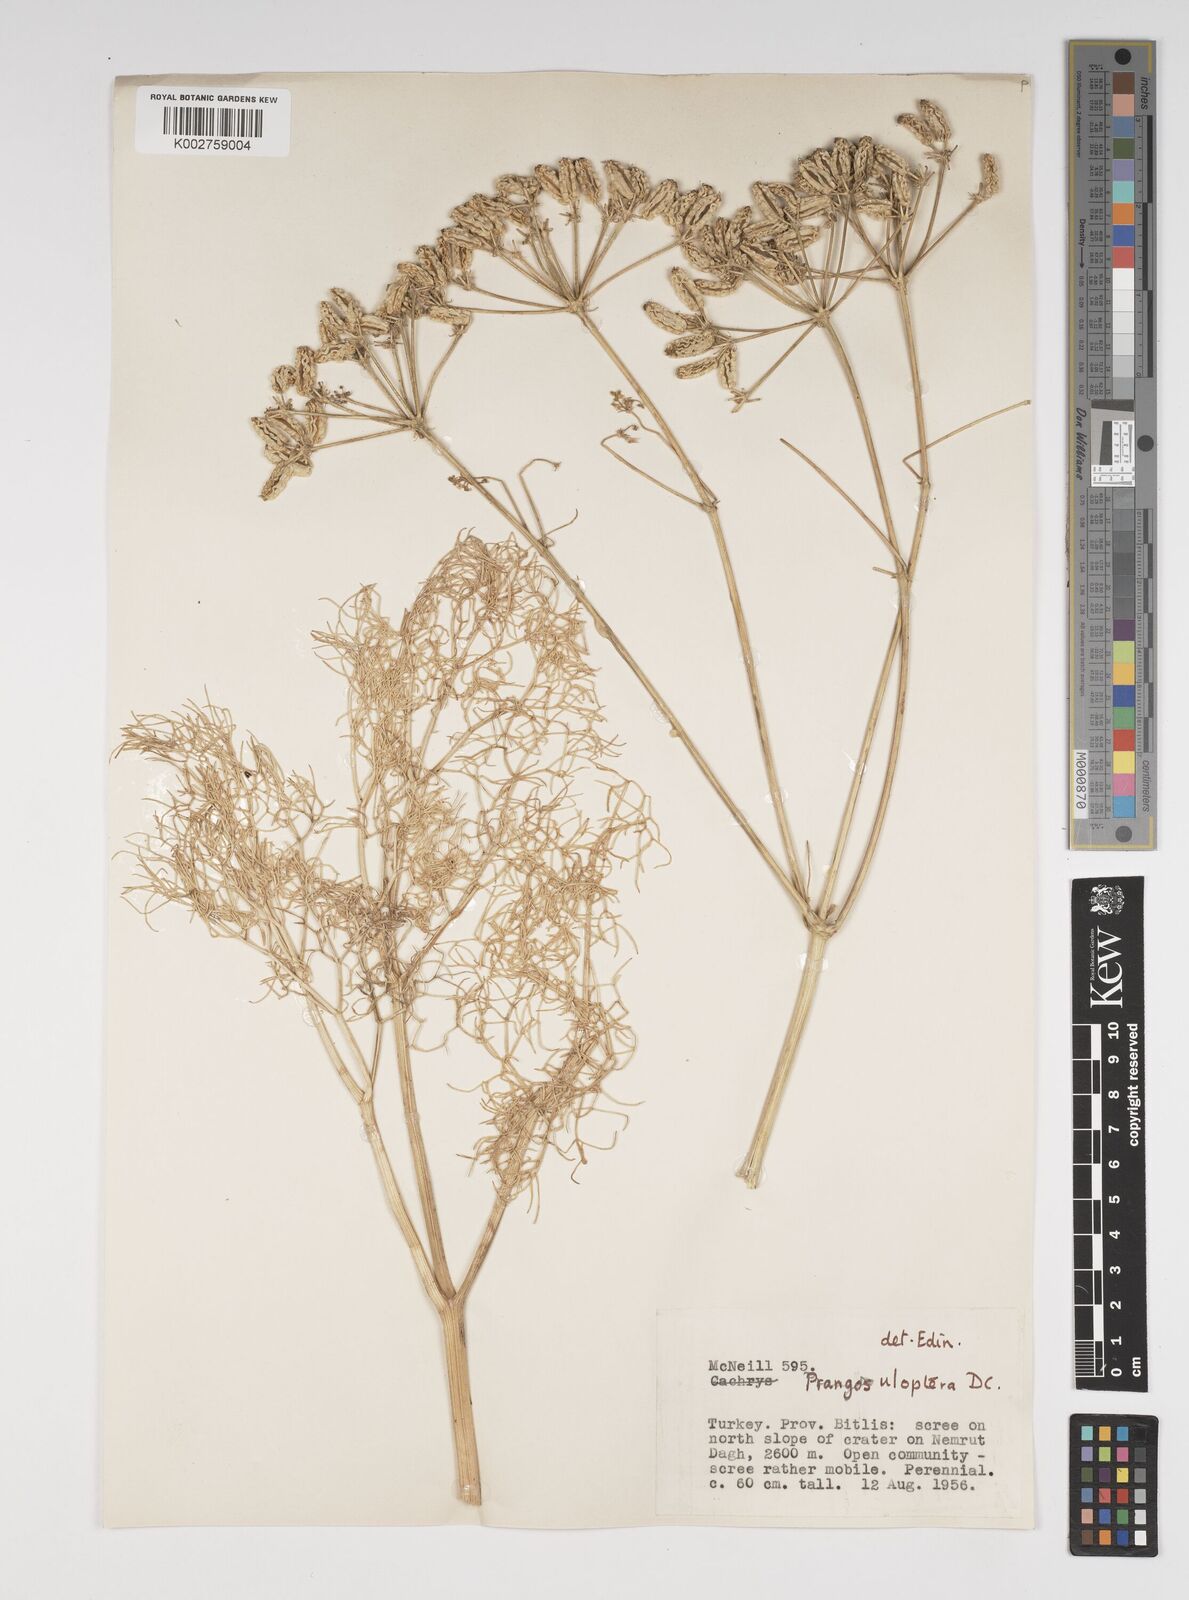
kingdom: Plantae
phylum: Tracheophyta
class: Magnoliopsida
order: Apiales
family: Apiaceae
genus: Prangos
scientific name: Prangos uloptera
